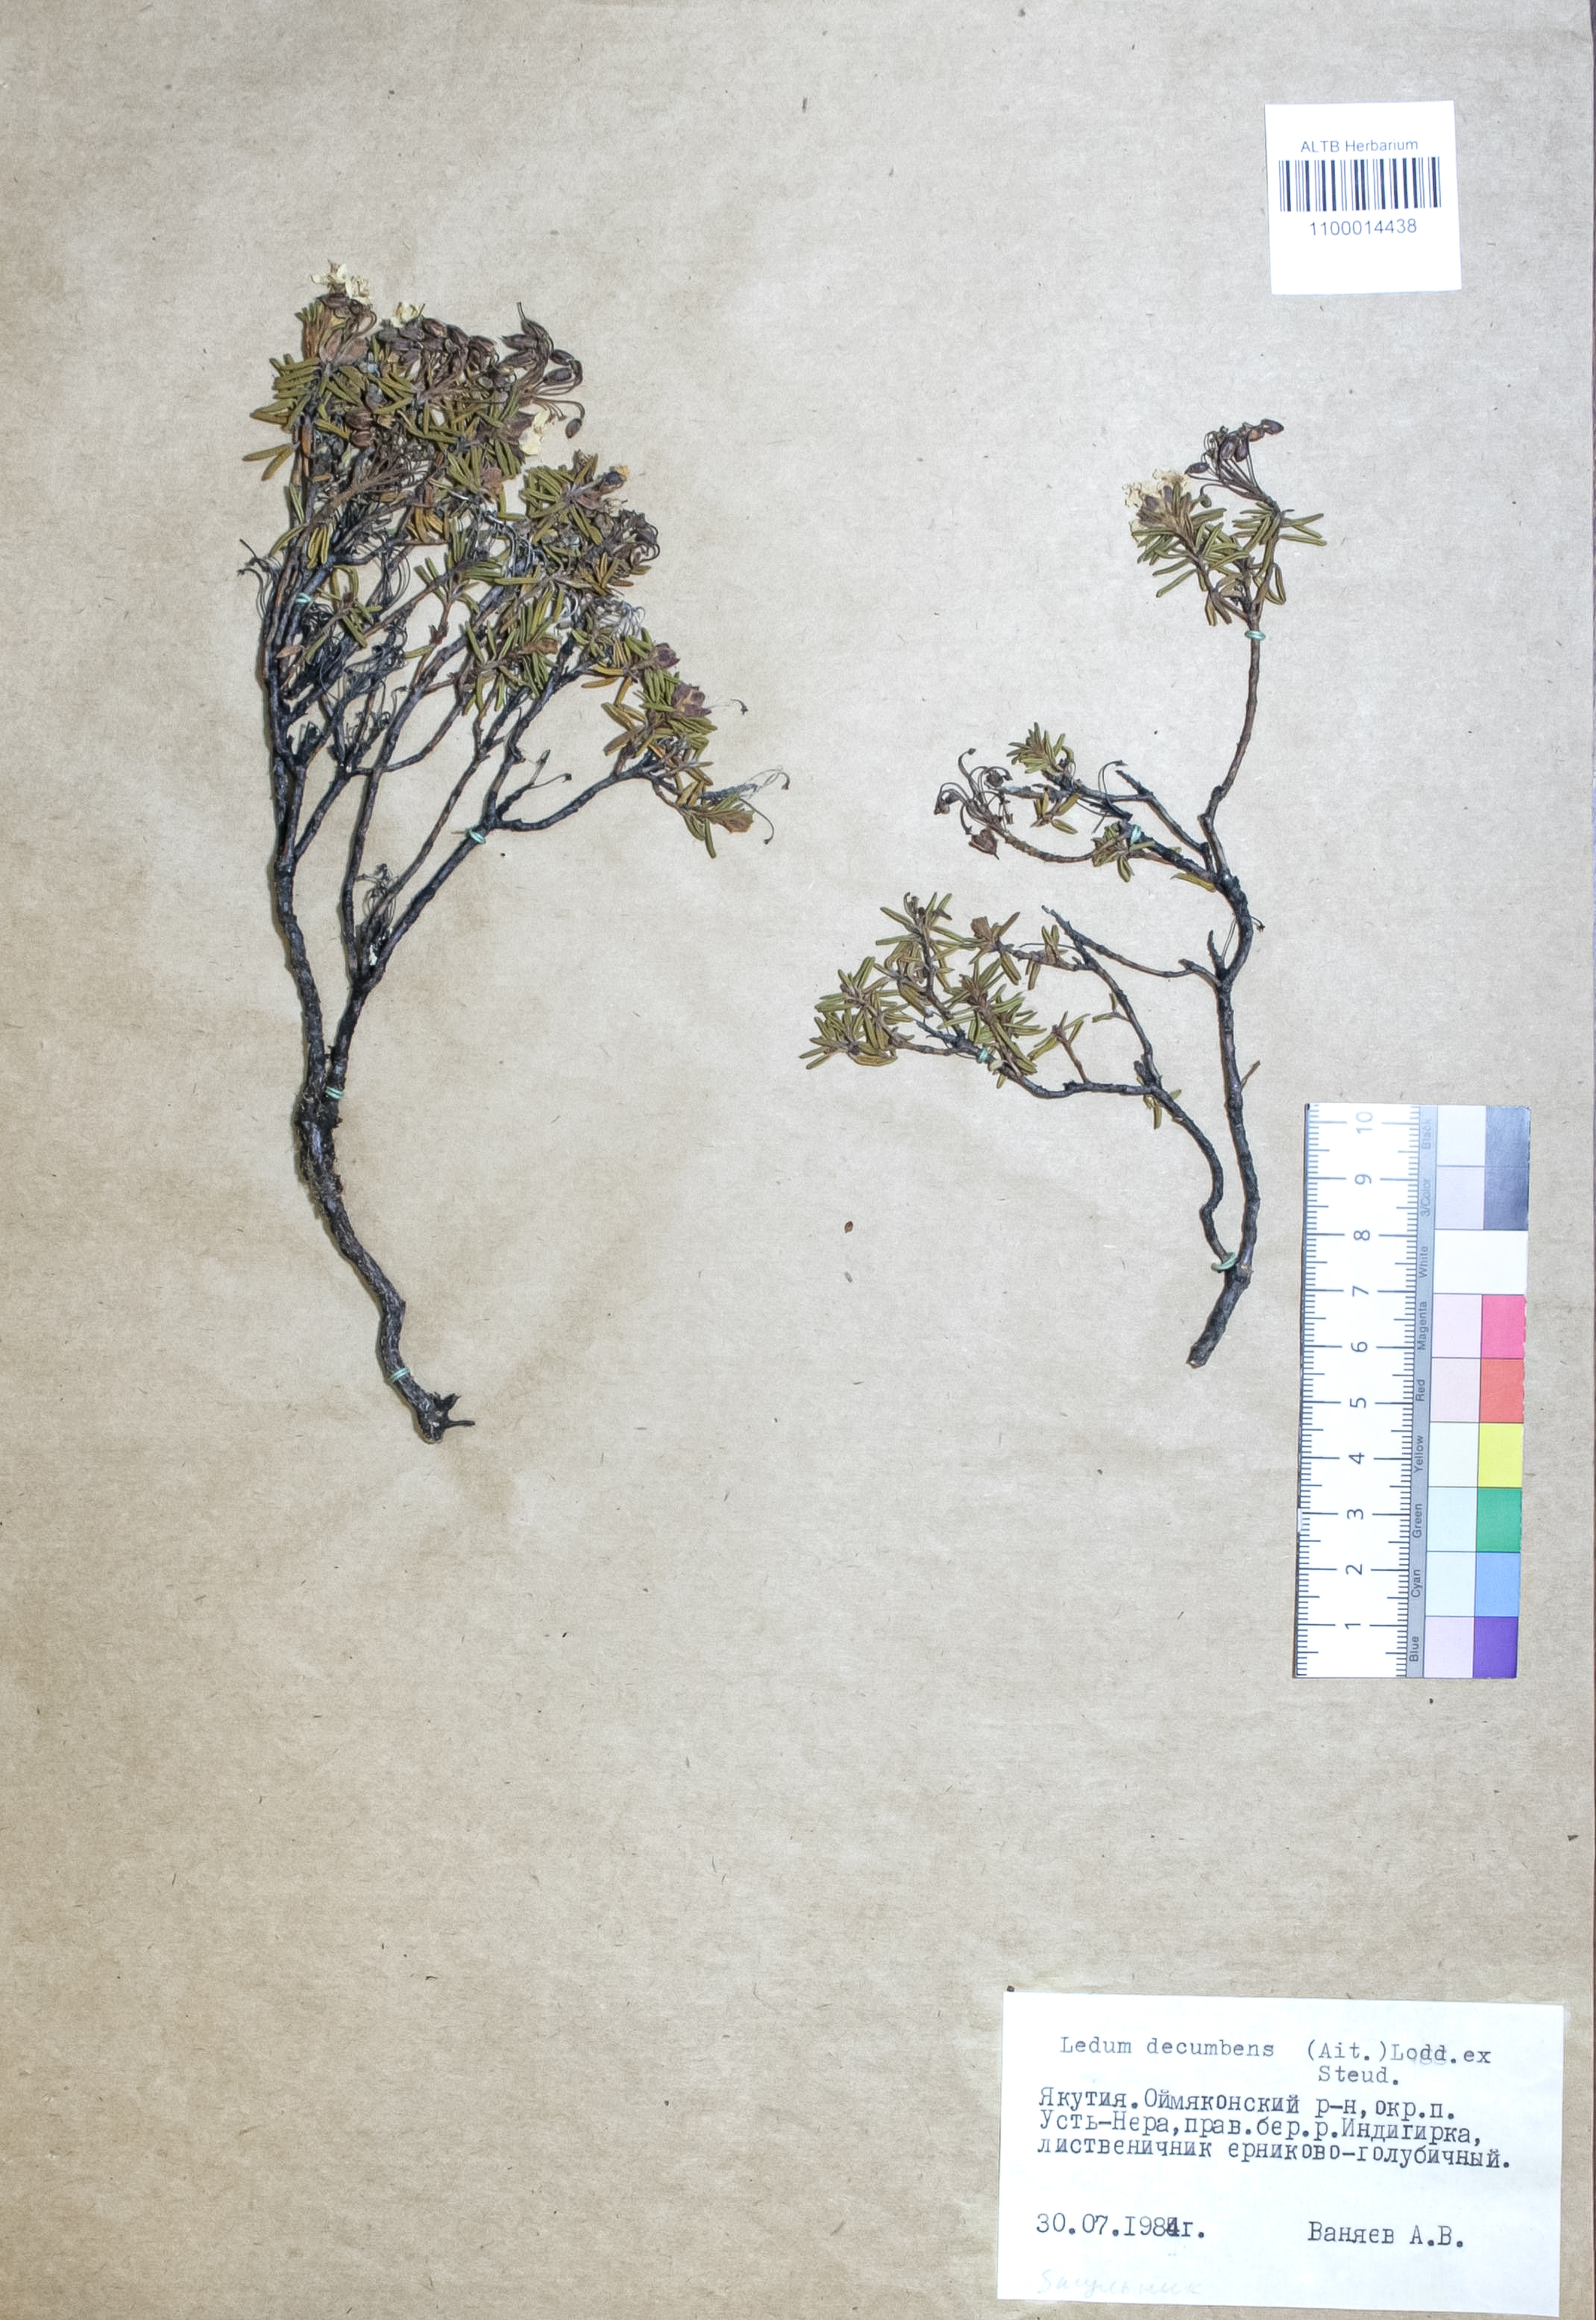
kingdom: Plantae
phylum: Tracheophyta
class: Magnoliopsida
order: Ericales
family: Ericaceae
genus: Rhododendron
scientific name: Rhododendron tomentosum
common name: Marsh labrador tea
